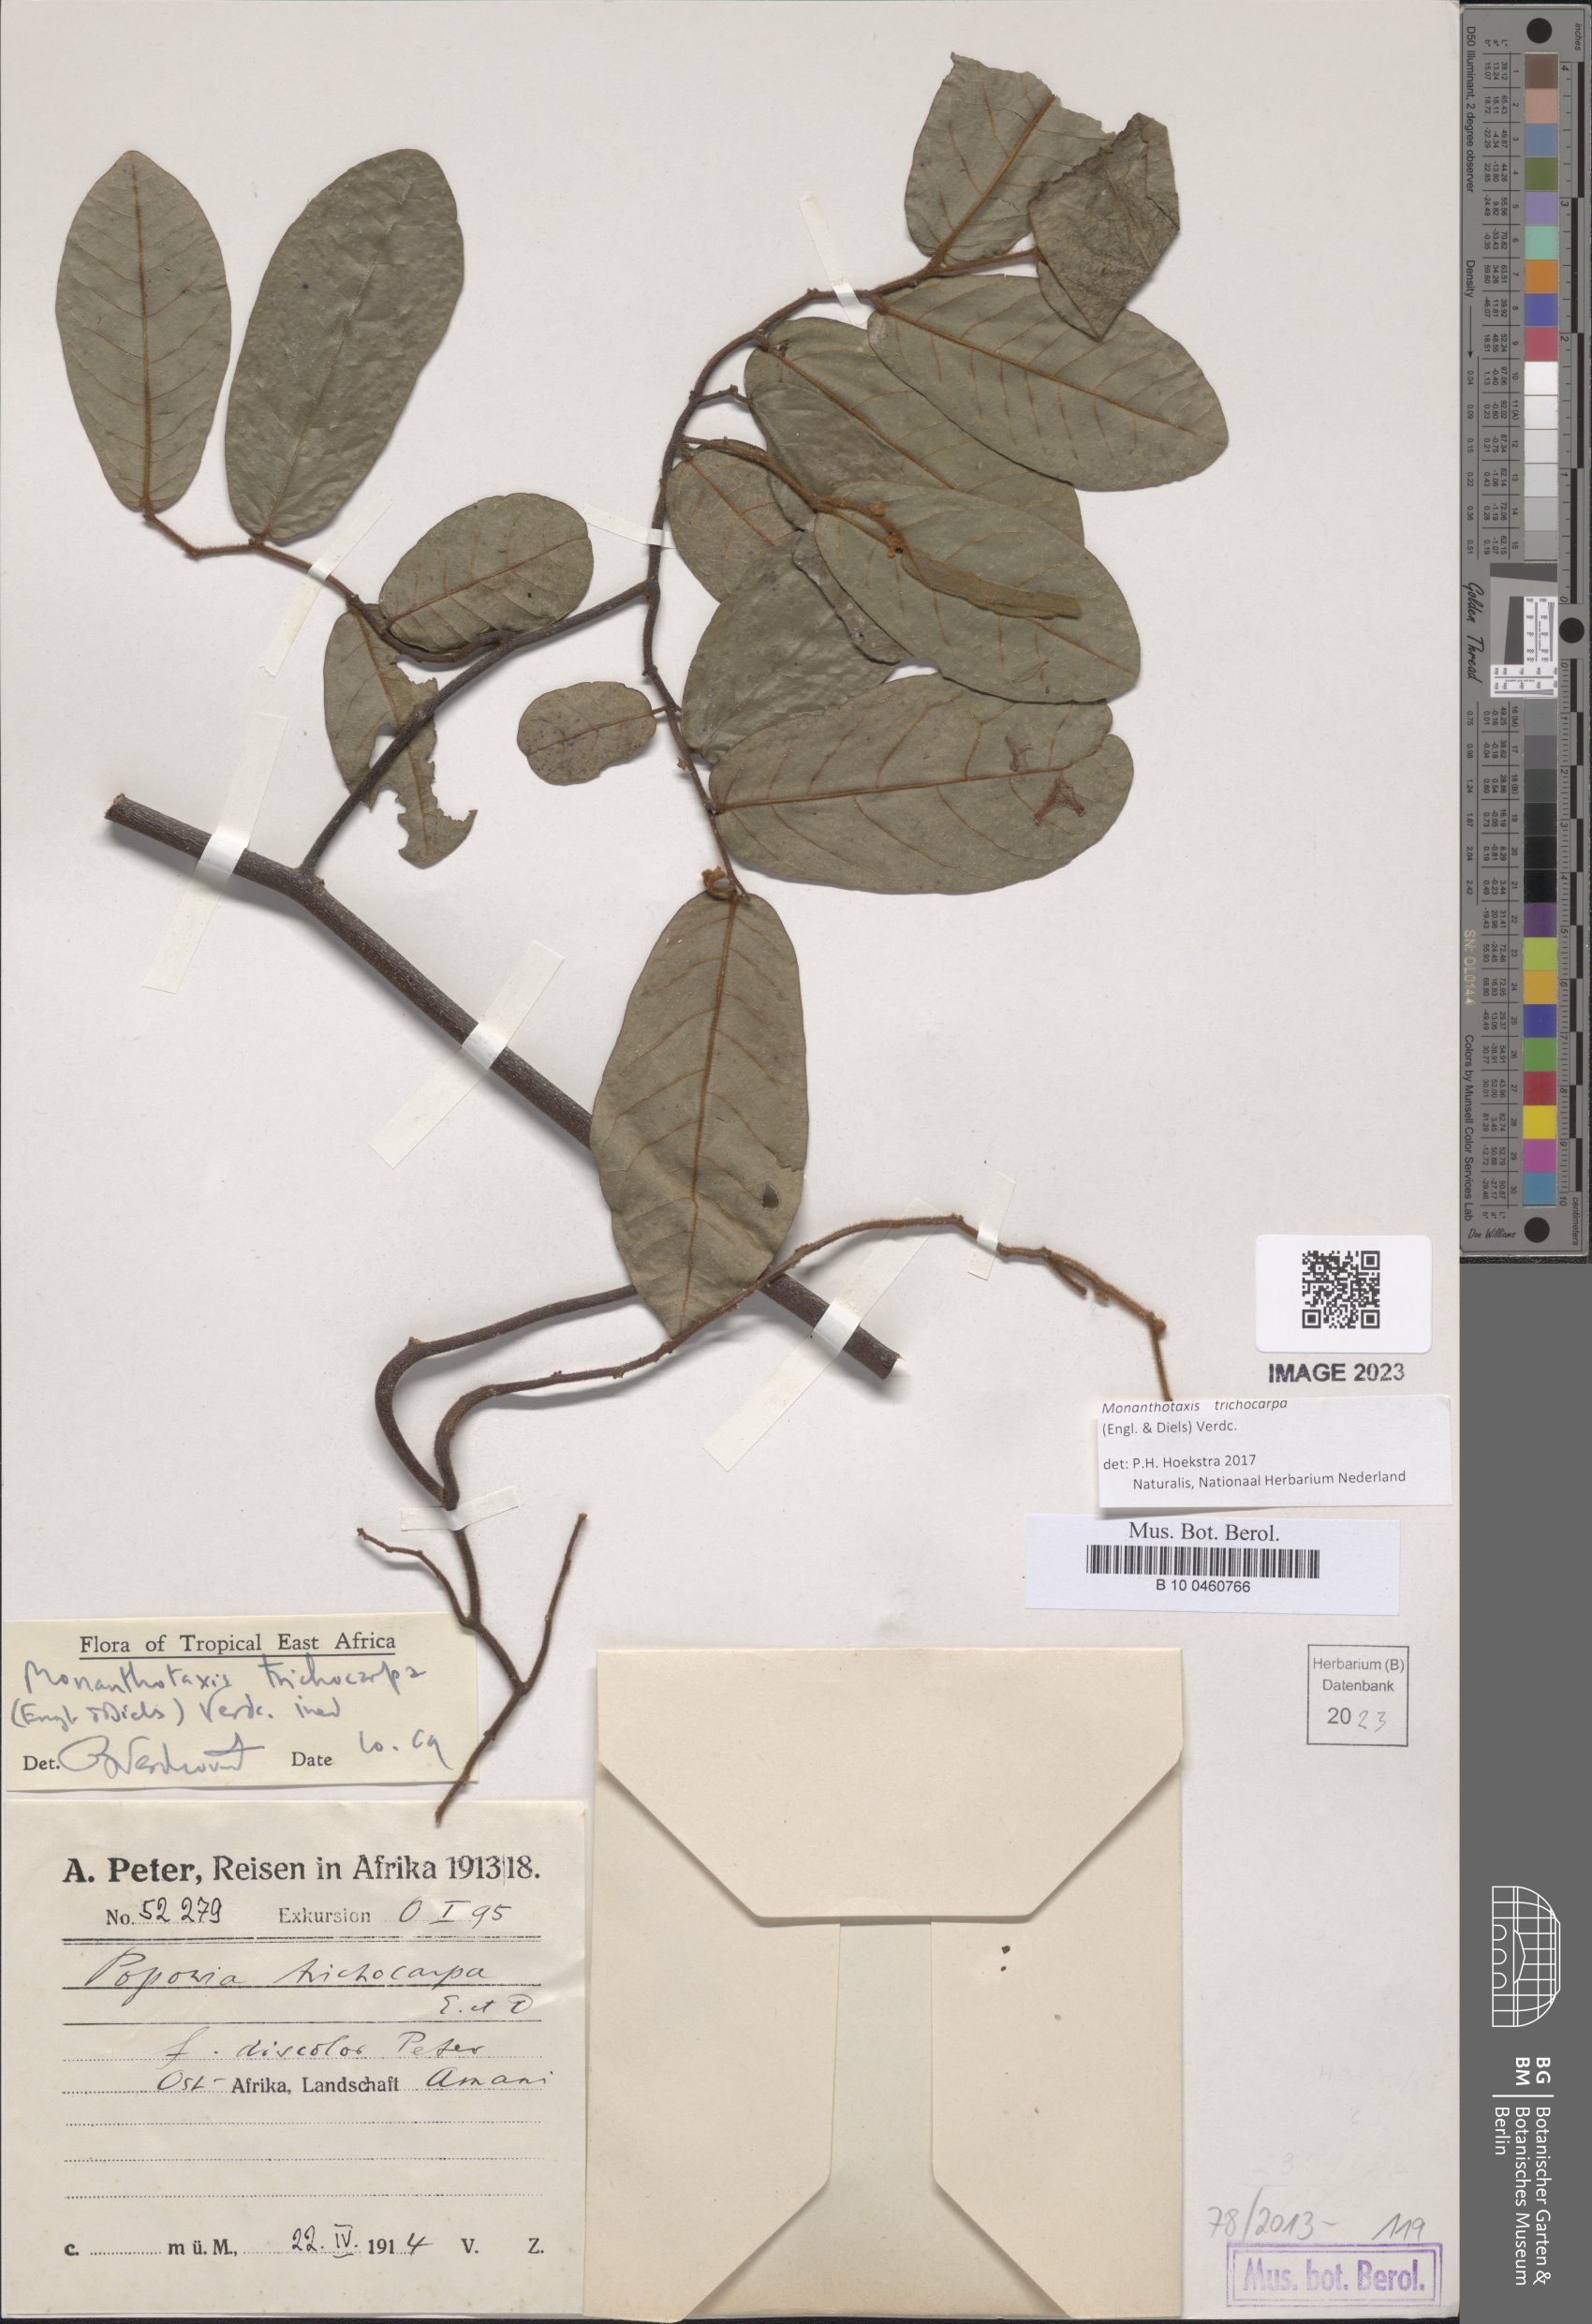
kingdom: Plantae
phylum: Tracheophyta
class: Magnoliopsida
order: Magnoliales
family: Annonaceae
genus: Monanthotaxis
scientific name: Monanthotaxis trichocarpa
